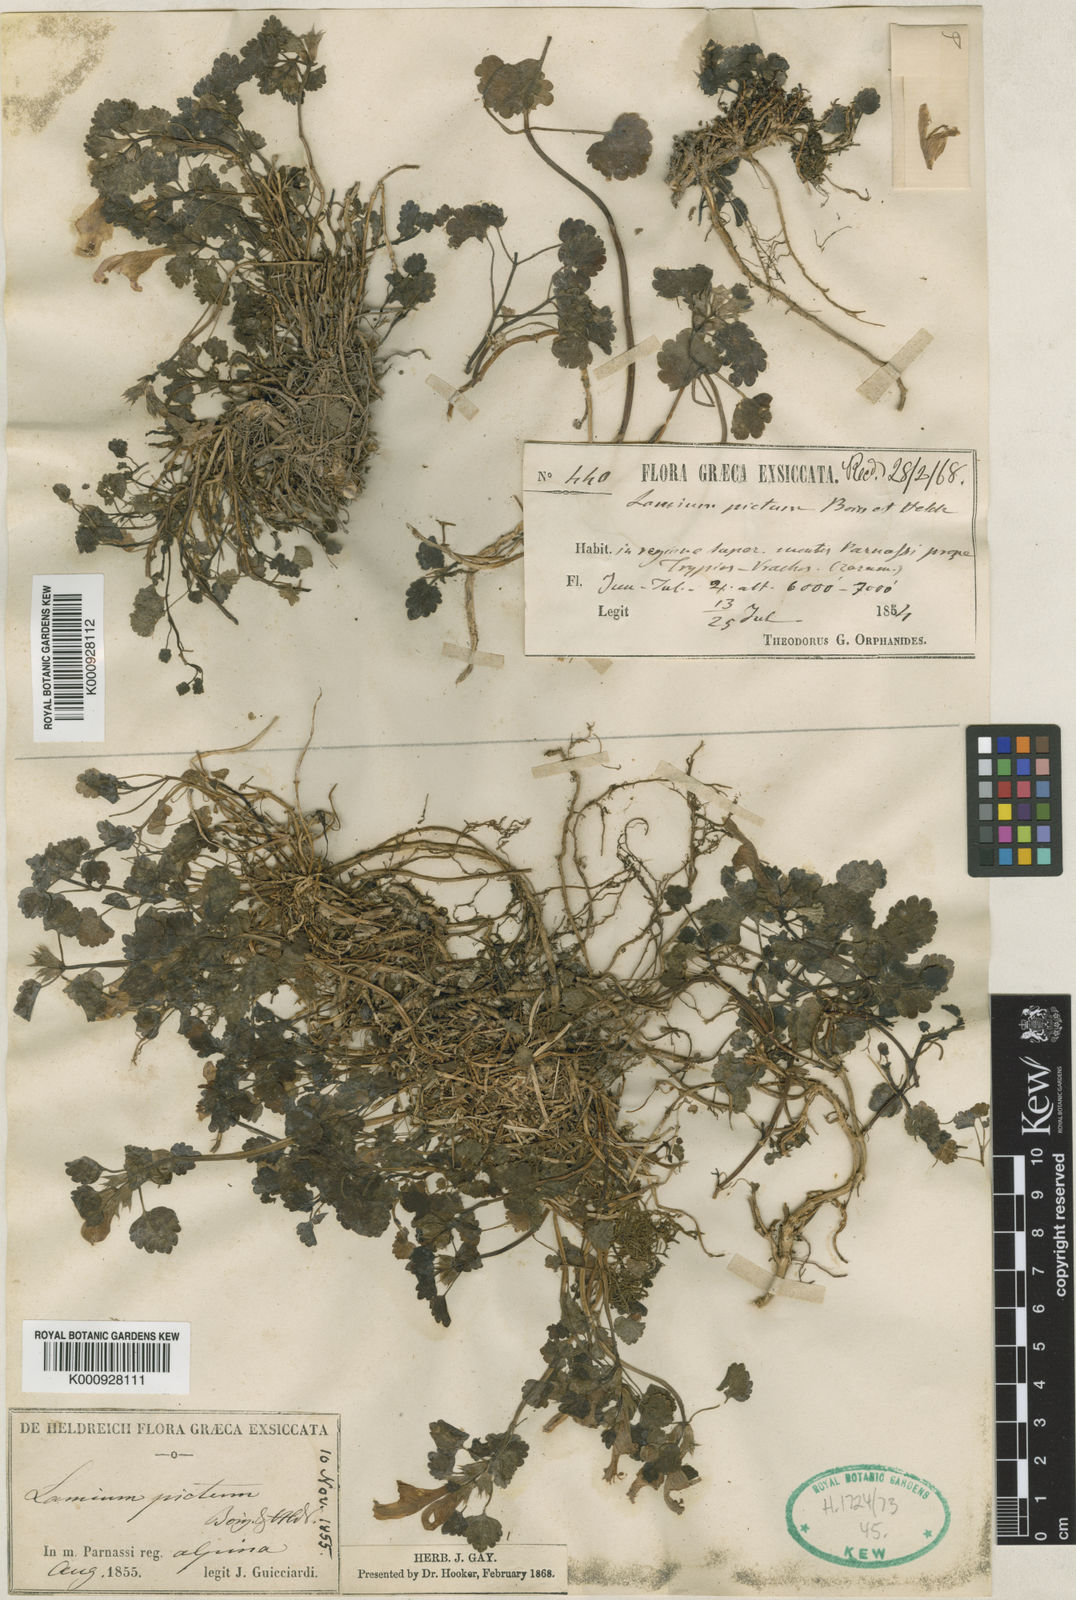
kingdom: Plantae
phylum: Tracheophyta
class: Magnoliopsida
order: Lamiales
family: Lamiaceae
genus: Lamium
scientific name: Lamium garganicum
